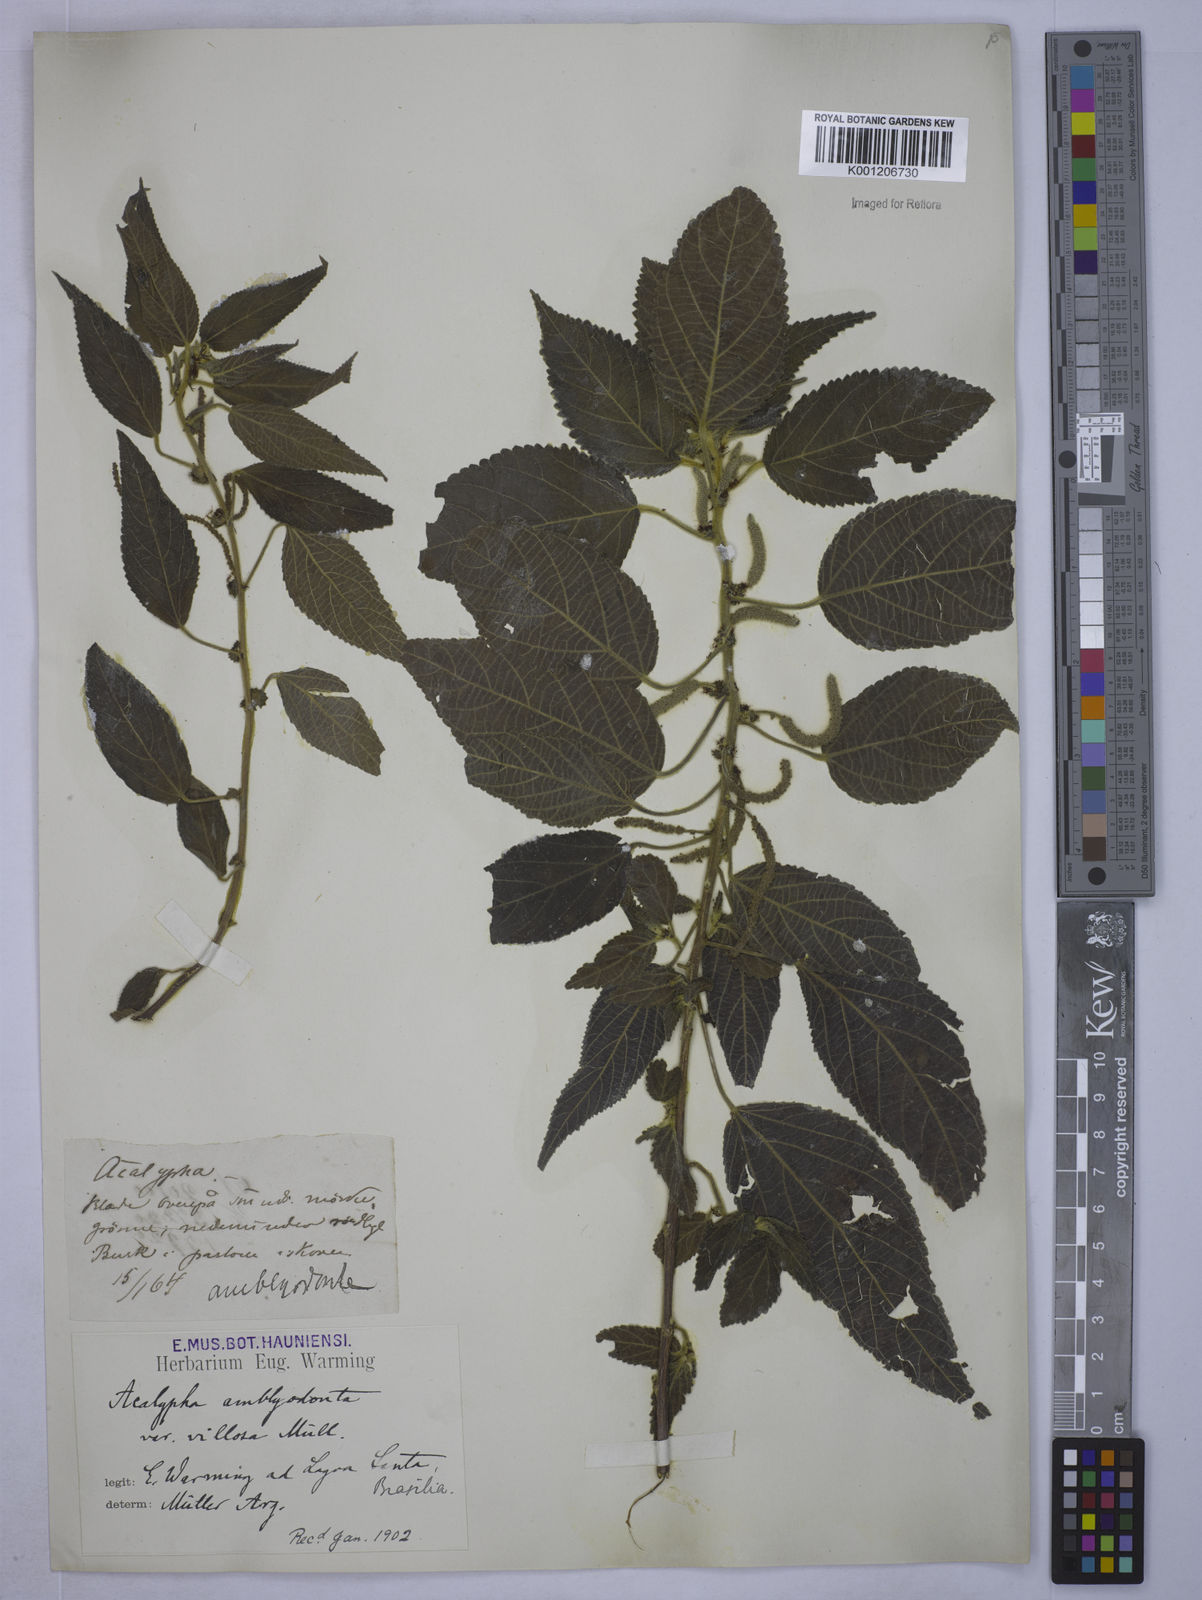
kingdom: Plantae
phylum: Tracheophyta
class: Magnoliopsida
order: Malpighiales
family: Euphorbiaceae
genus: Acalypha
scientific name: Acalypha
